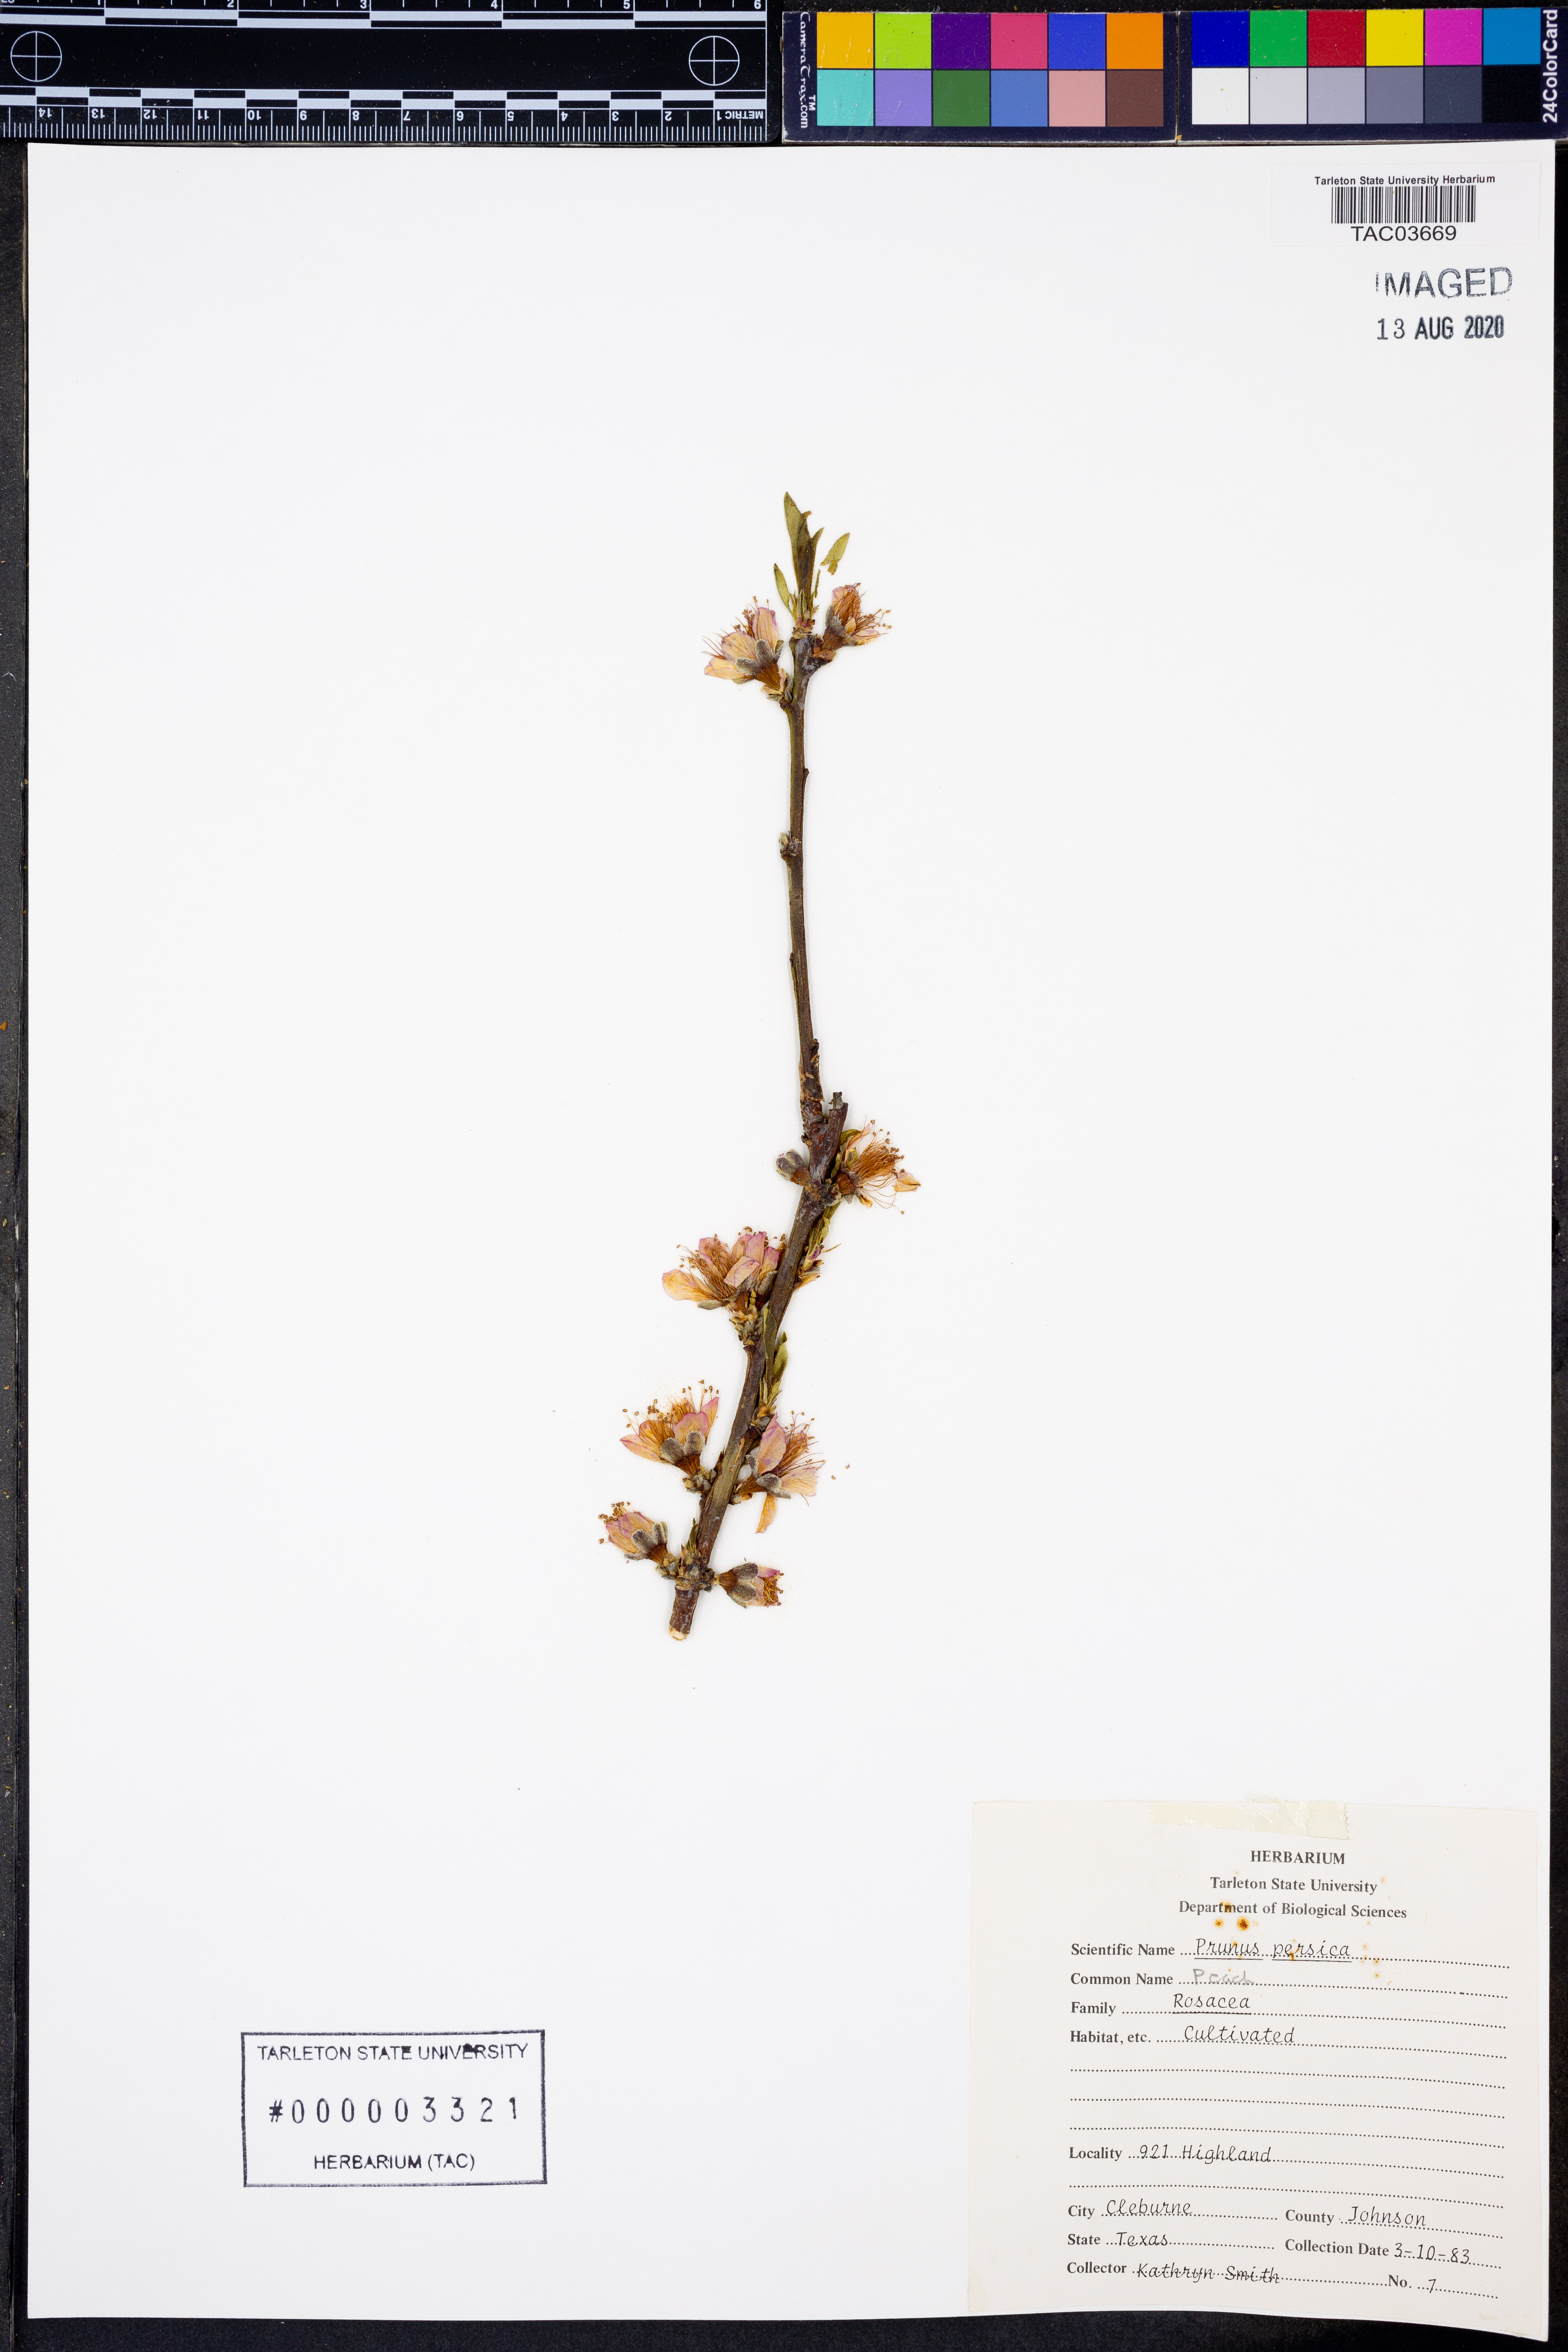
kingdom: Plantae
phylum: Tracheophyta
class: Magnoliopsida
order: Rosales
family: Rosaceae
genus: Prunus
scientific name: Prunus persica
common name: Peach
